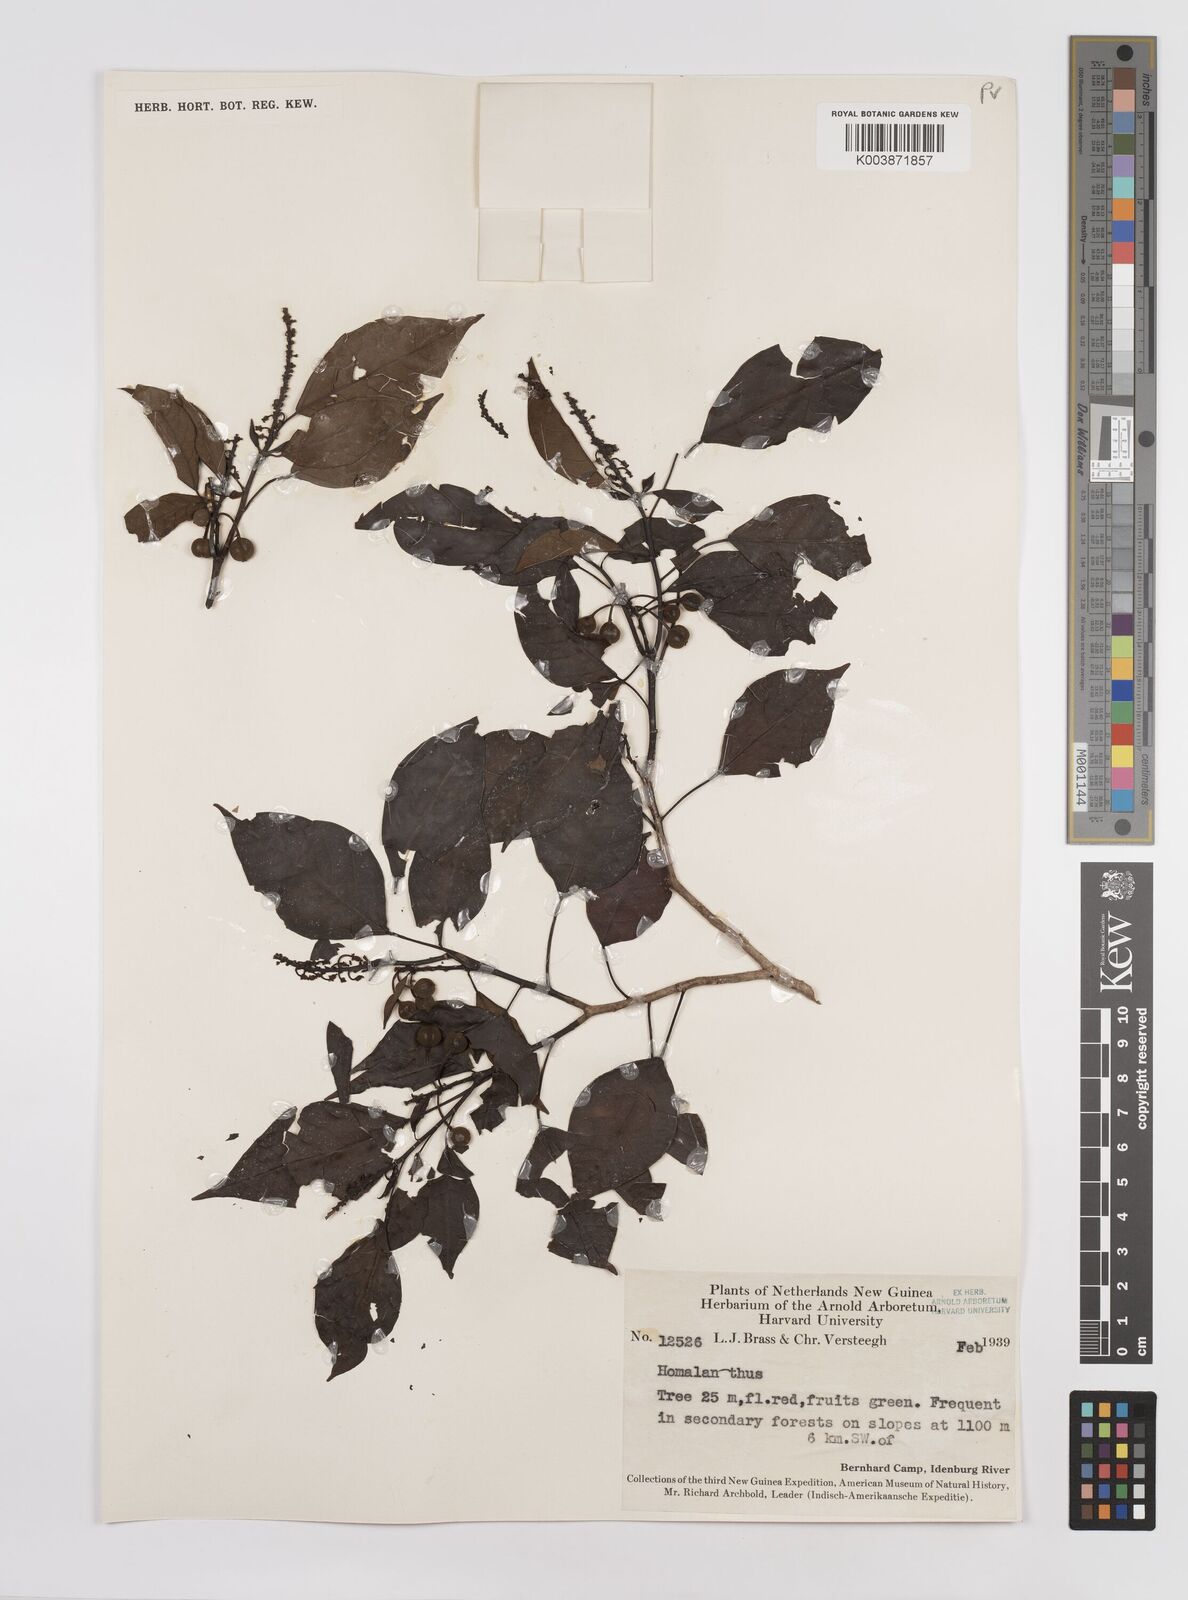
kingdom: Plantae
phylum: Tracheophyta
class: Magnoliopsida
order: Malpighiales
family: Euphorbiaceae
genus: Homalanthus
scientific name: Homalanthus novoguineensis
